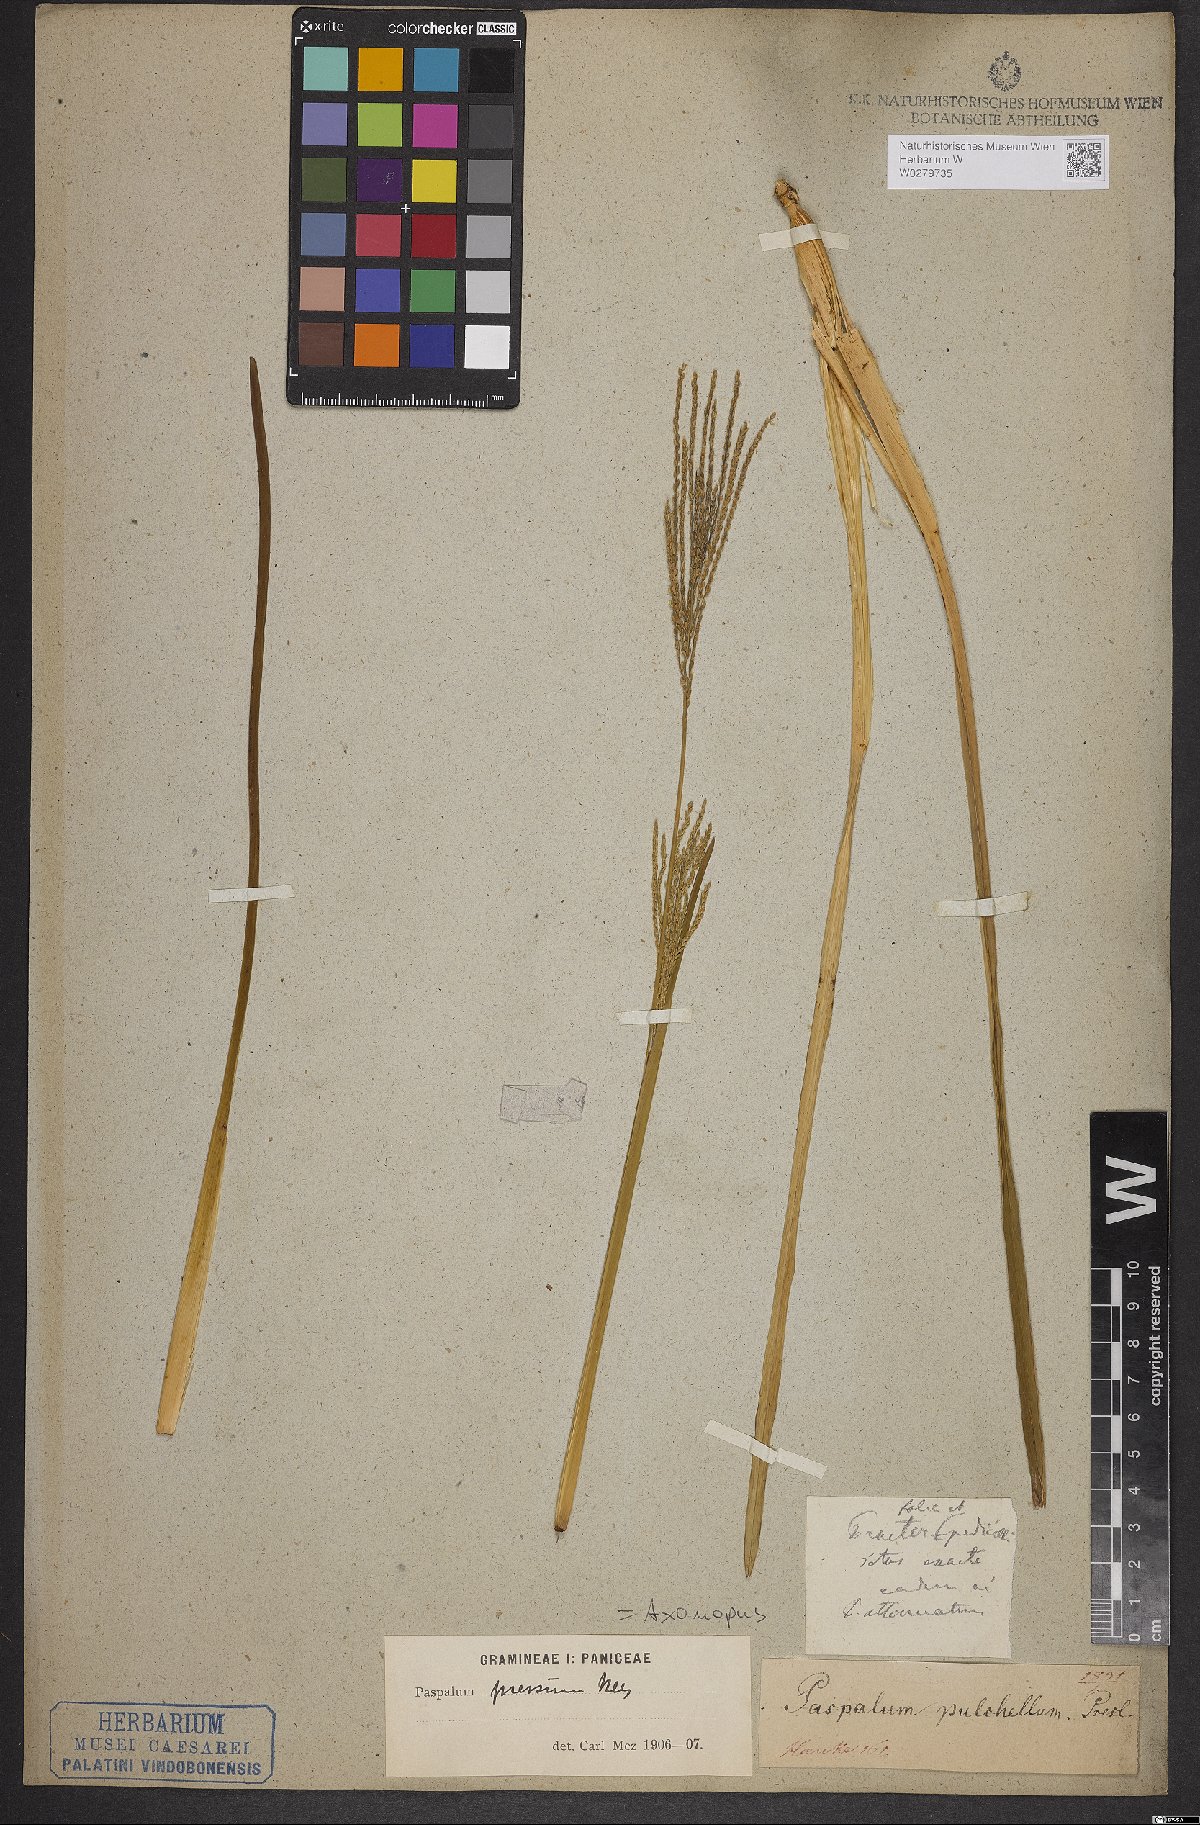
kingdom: Plantae
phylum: Tracheophyta
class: Liliopsida
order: Poales
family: Poaceae
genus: Axonopus
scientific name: Axonopus pressus
